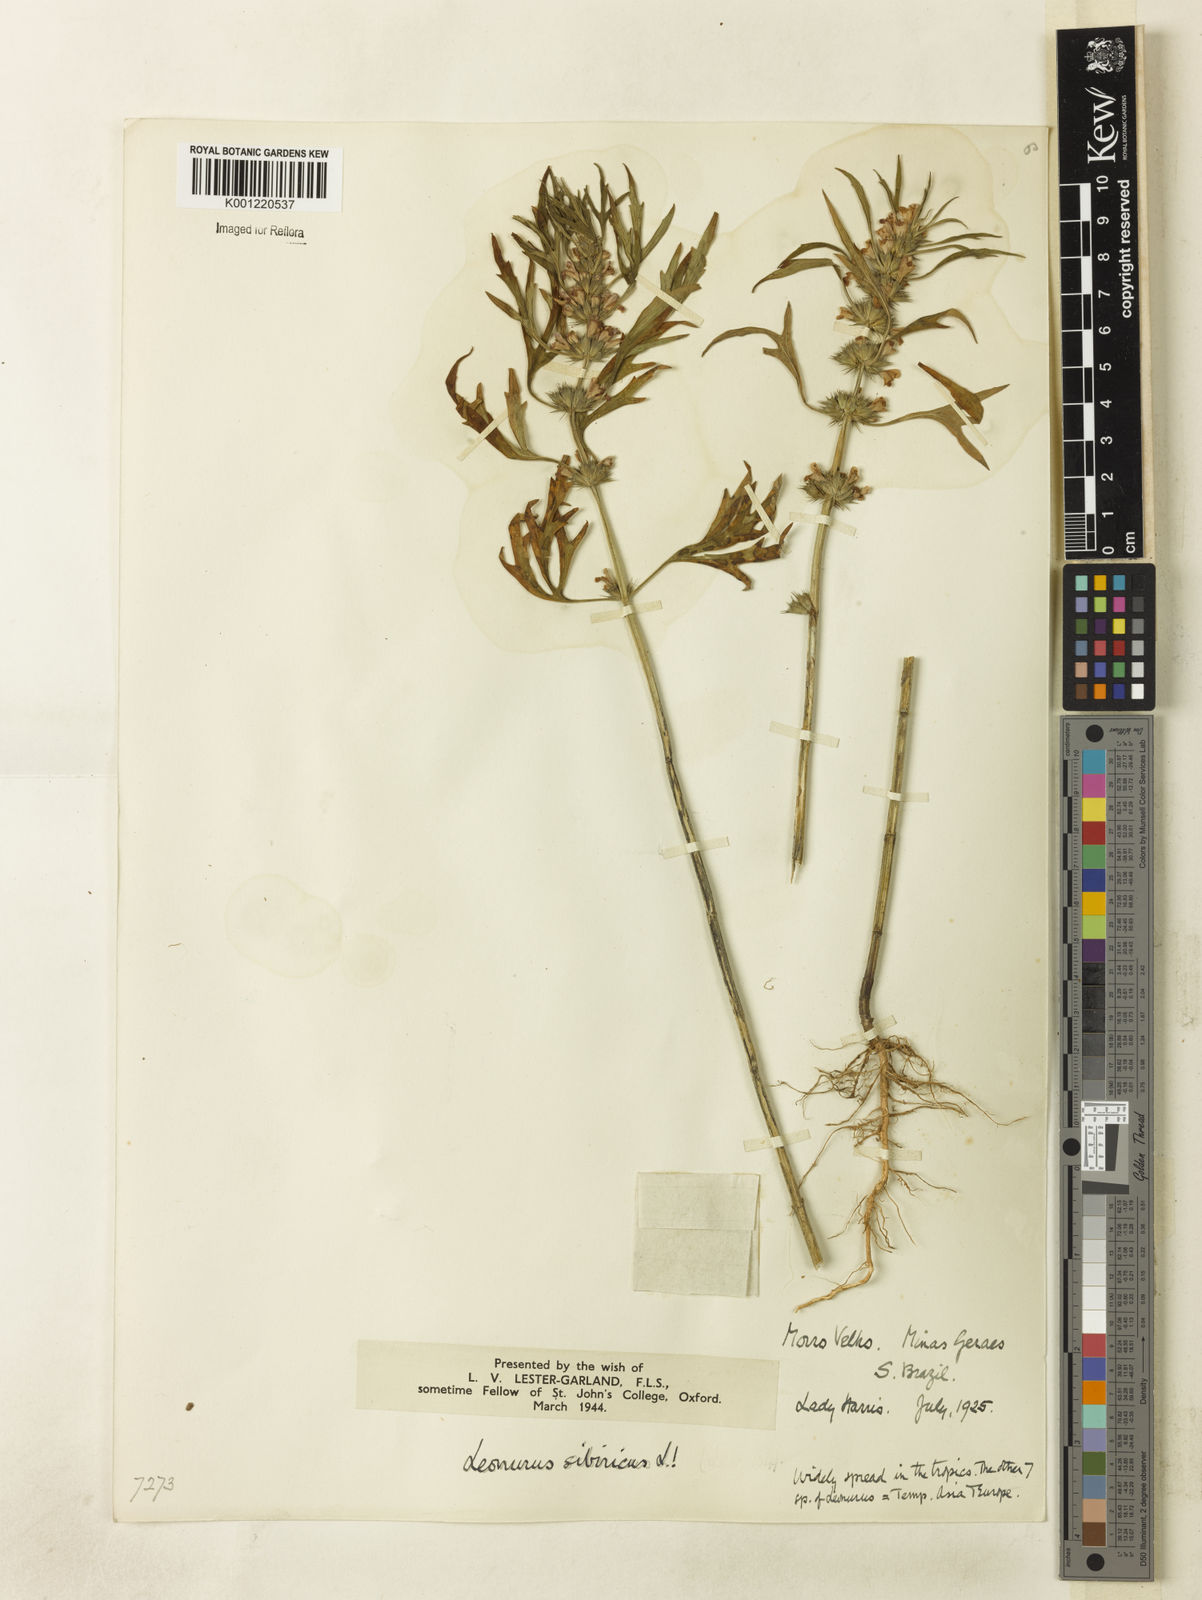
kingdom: Plantae
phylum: Tracheophyta
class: Magnoliopsida
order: Lamiales
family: Lamiaceae
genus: Leonurus
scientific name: Leonurus japonicus
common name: Honeyweed
